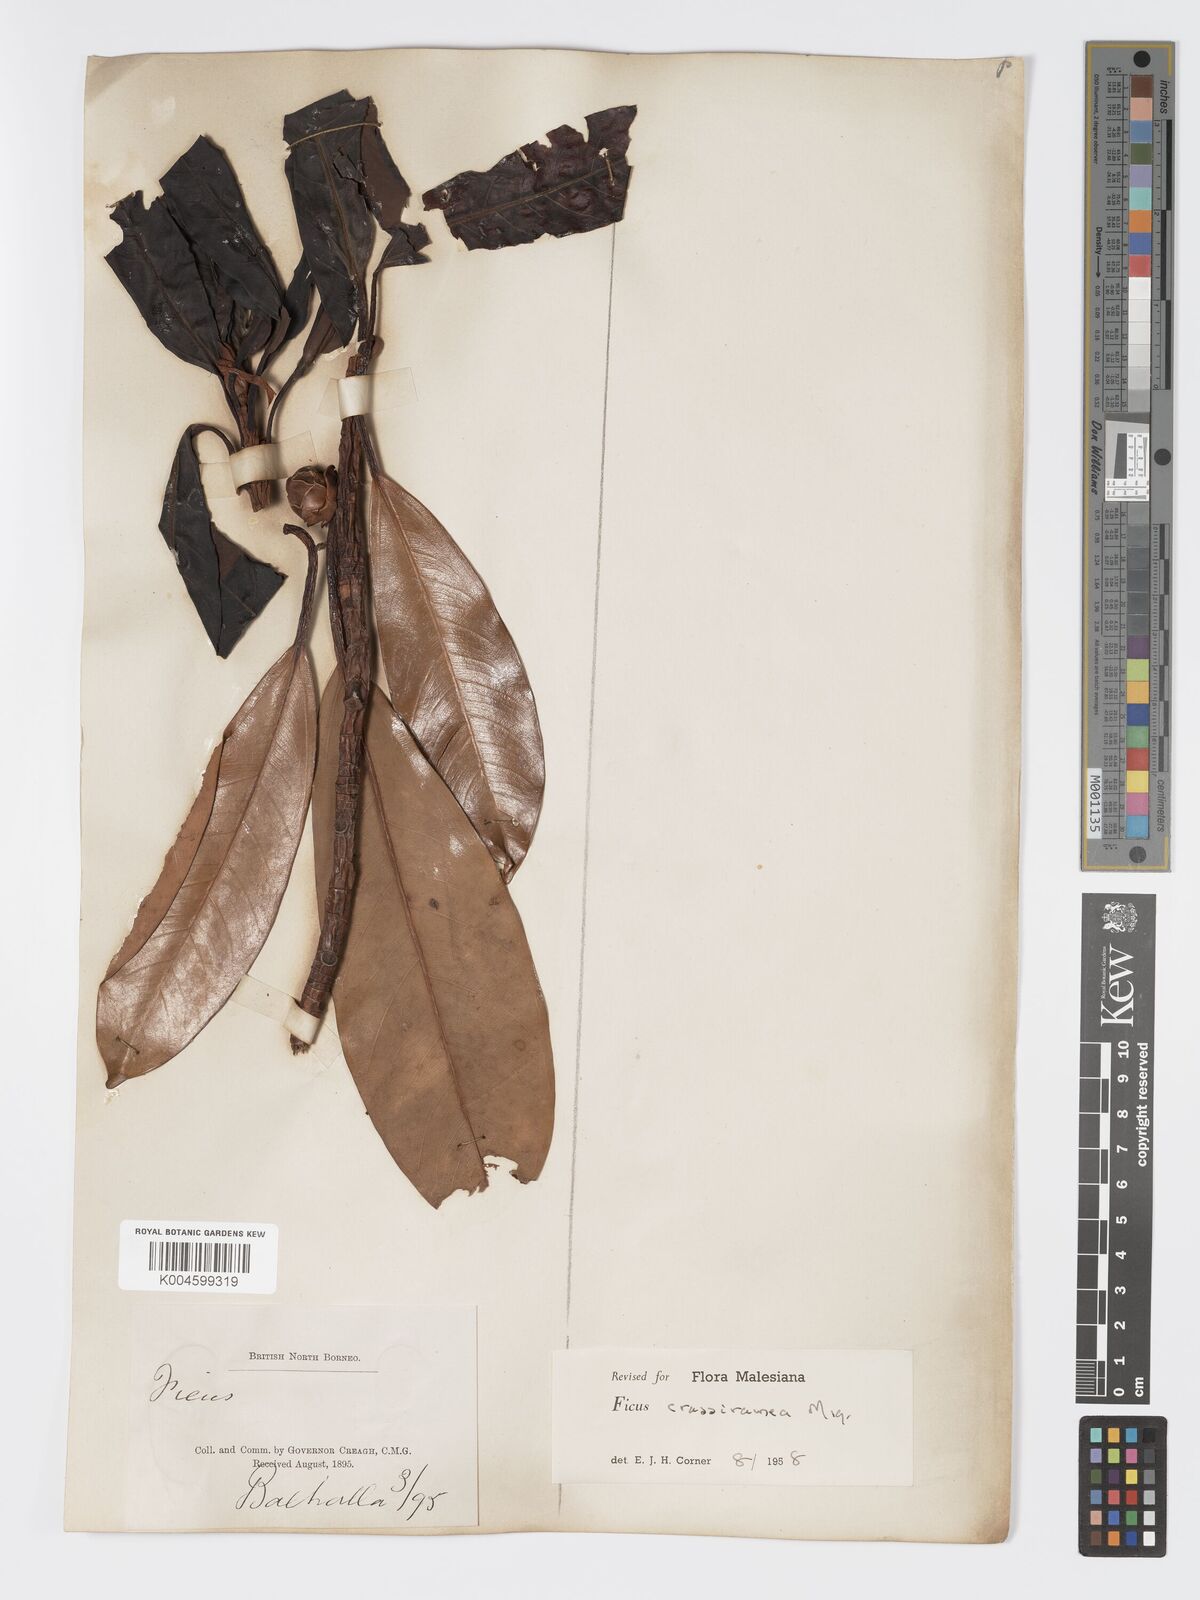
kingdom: Plantae
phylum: Tracheophyta
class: Magnoliopsida
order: Rosales
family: Moraceae
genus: Ficus
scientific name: Ficus crassiramea
